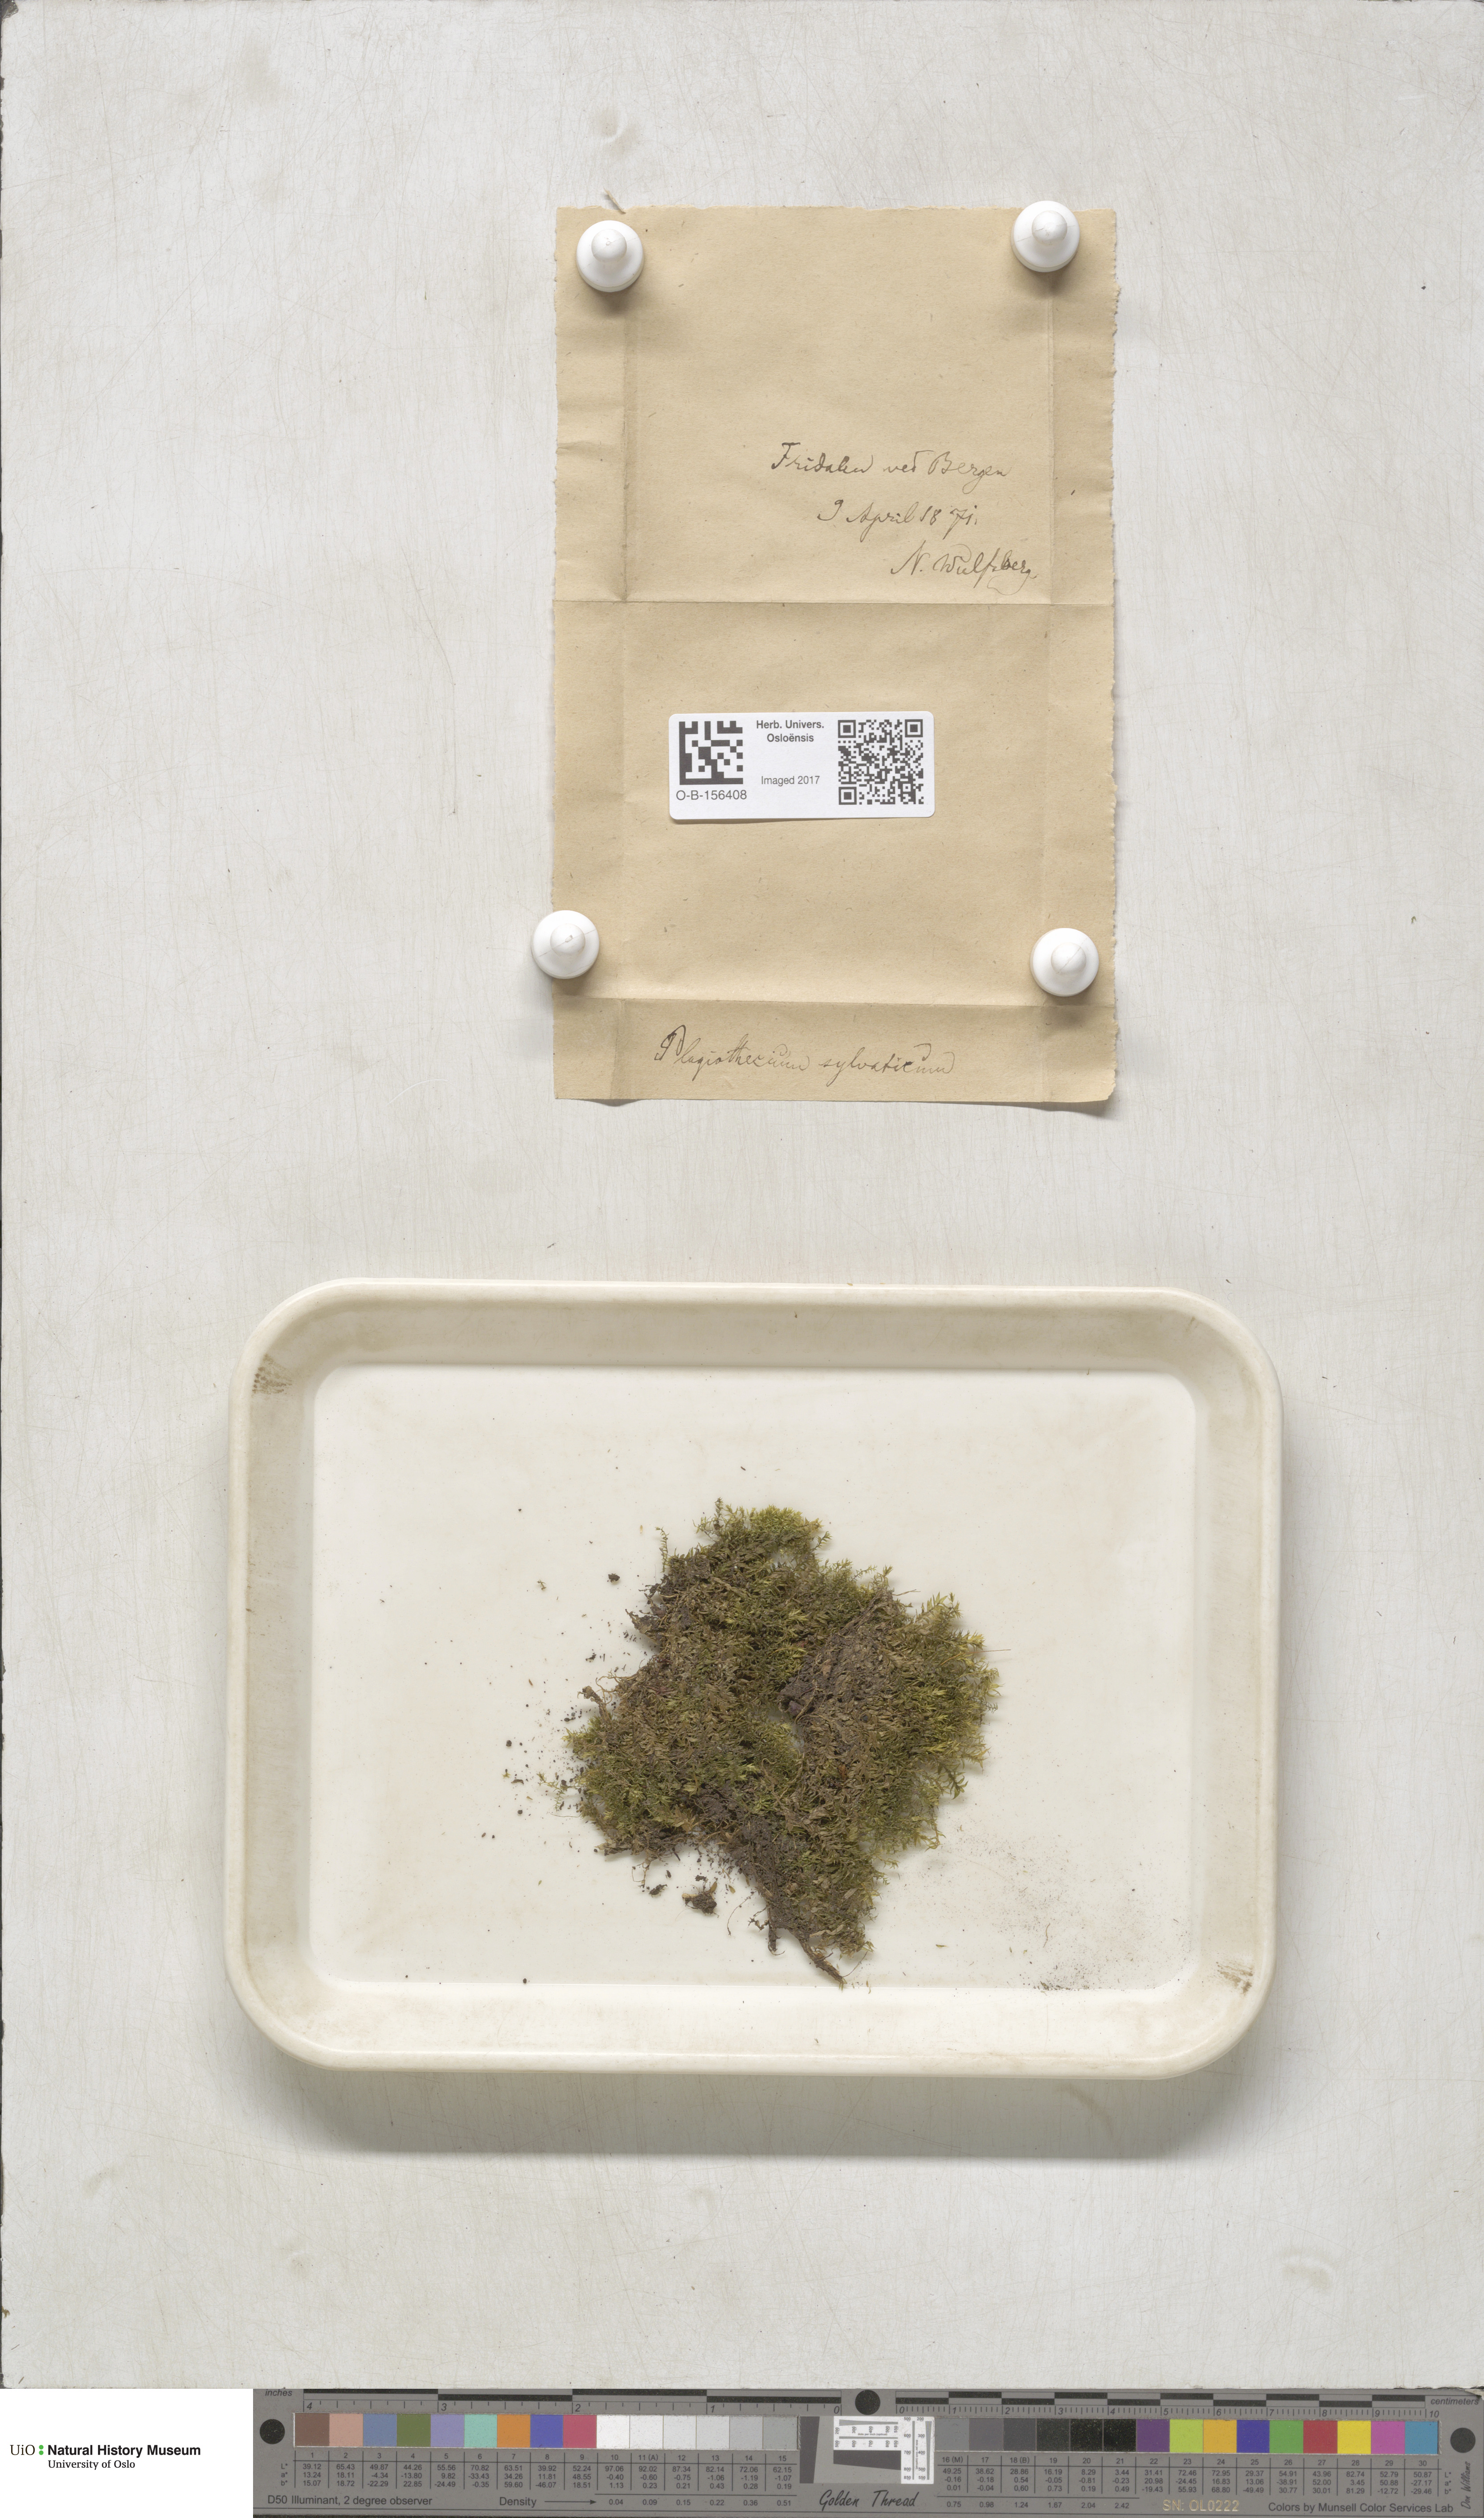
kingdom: Plantae
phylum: Bryophyta
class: Bryopsida
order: Hypnales
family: Plagiotheciaceae
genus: Plagiothecium
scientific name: Plagiothecium nemorale
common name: Woodsy silk-moss
